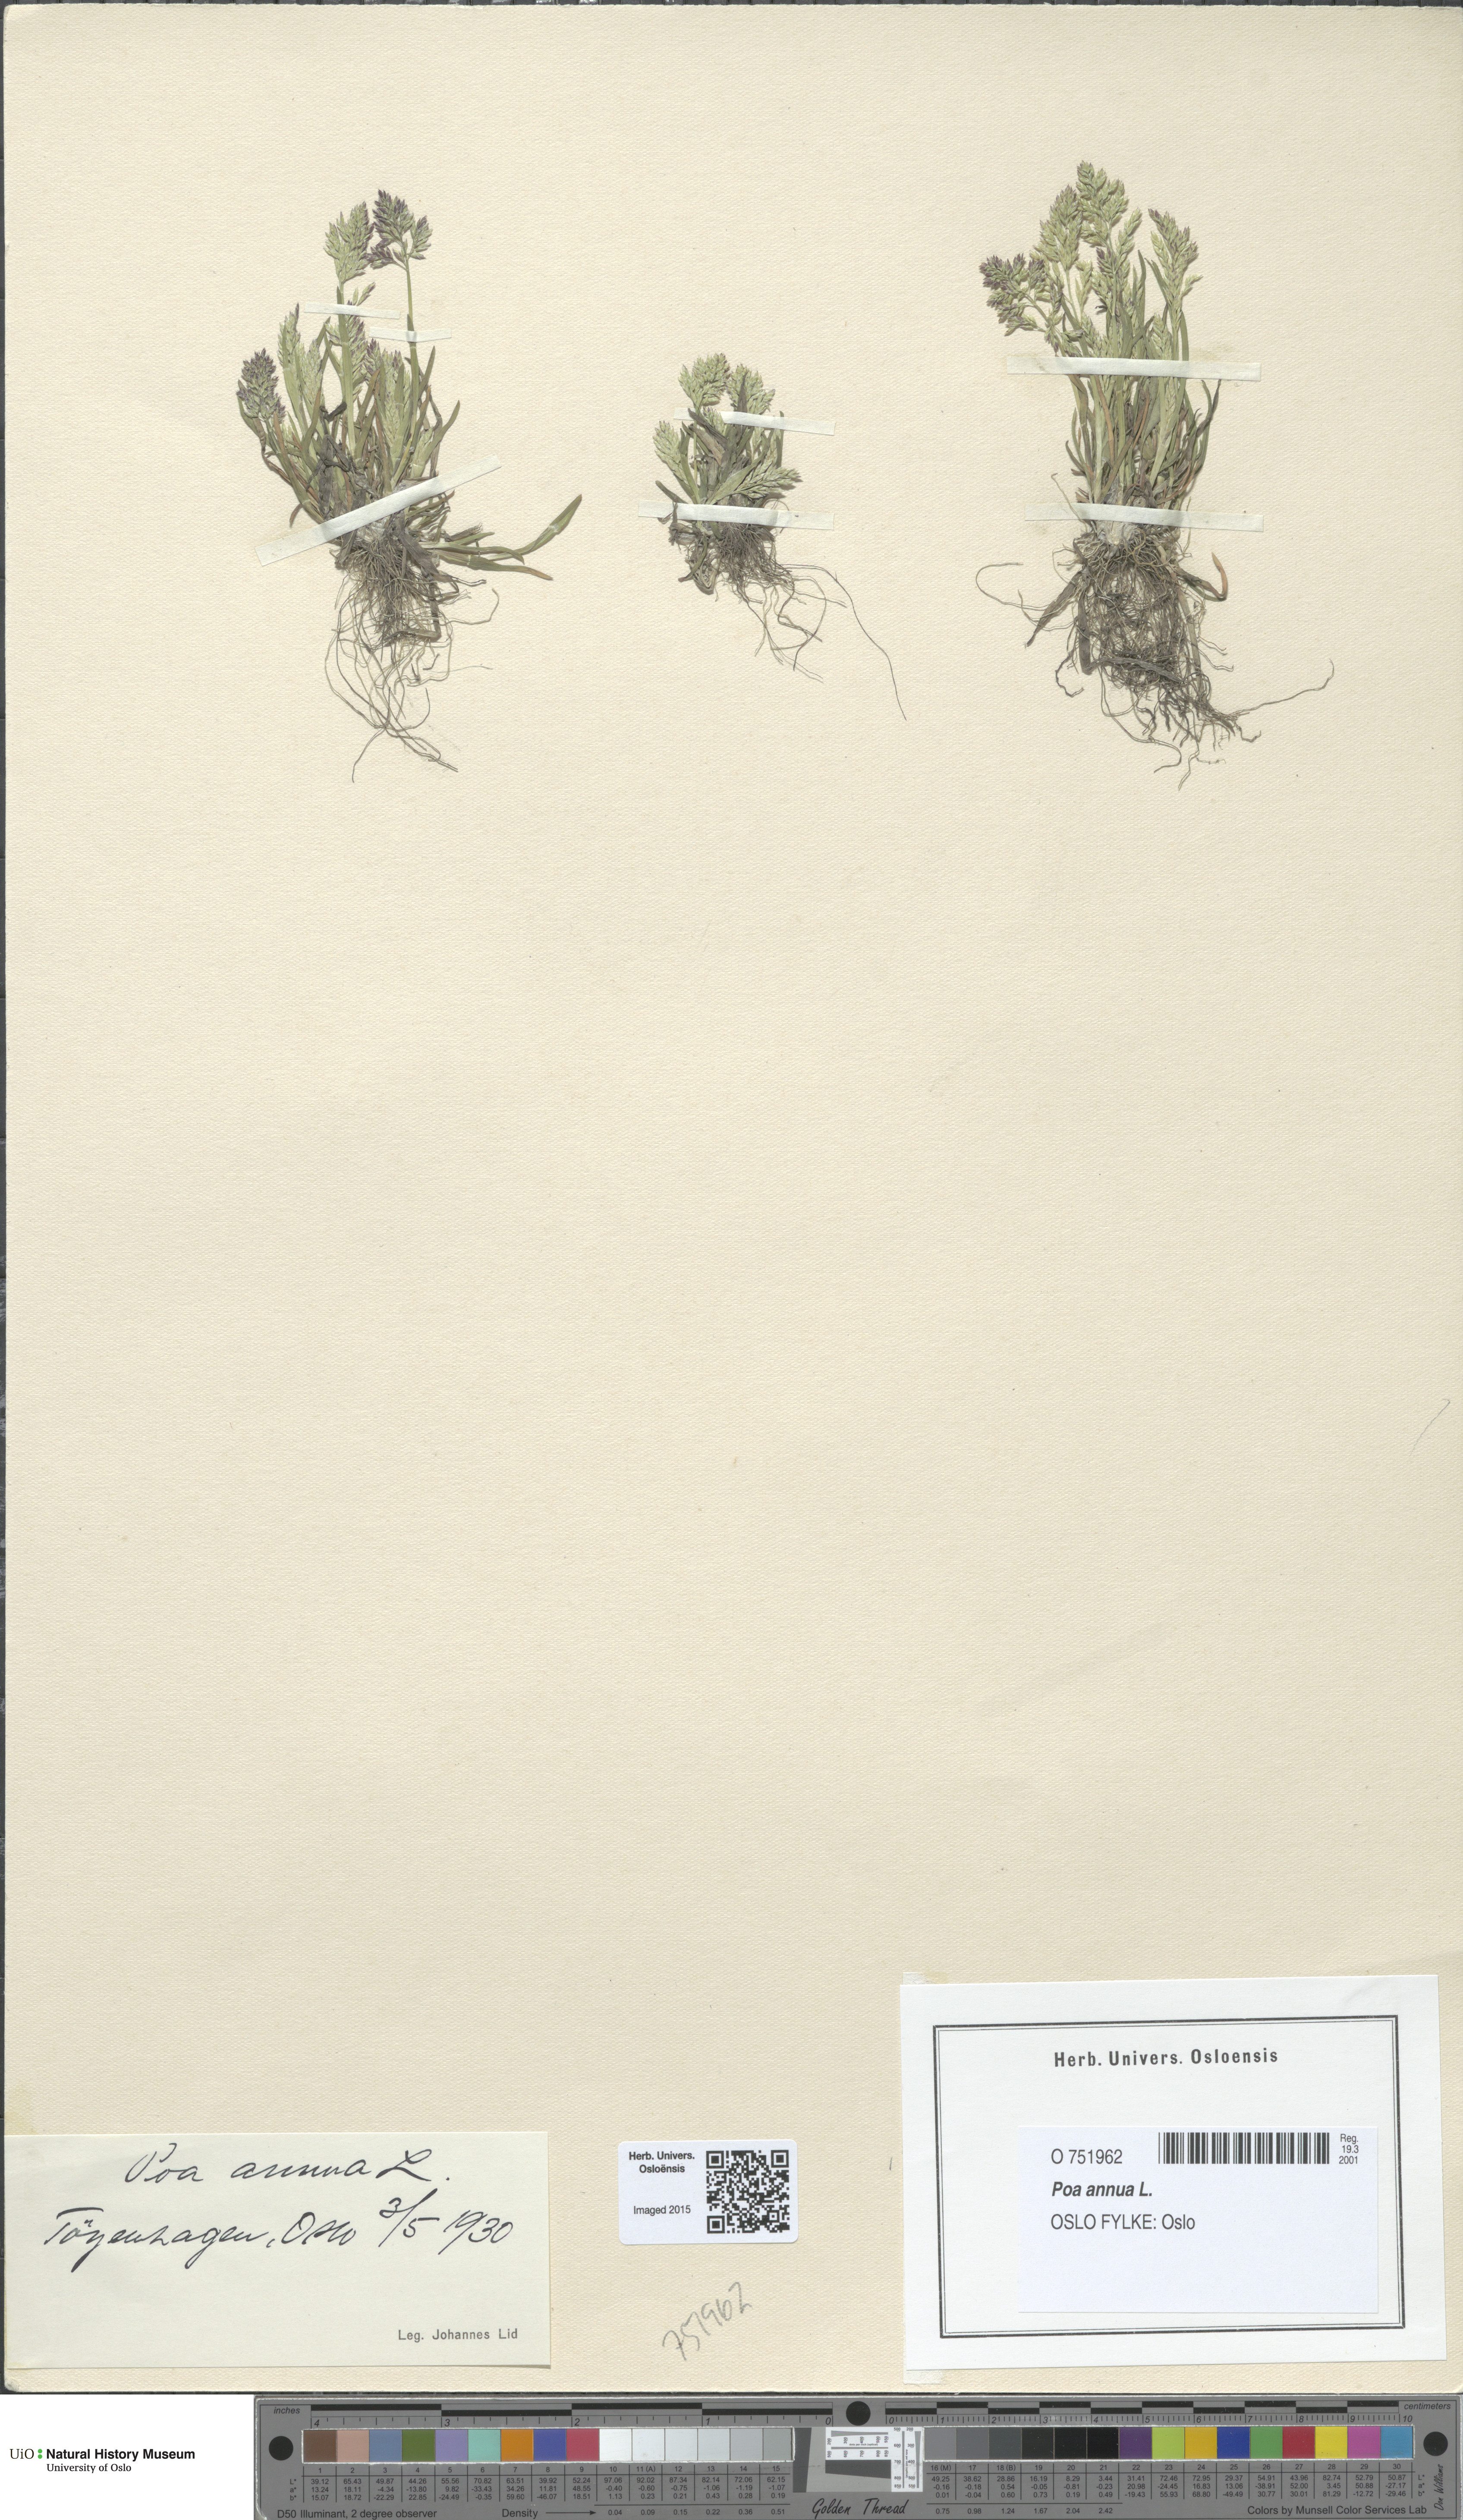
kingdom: Plantae
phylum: Tracheophyta
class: Liliopsida
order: Poales
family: Poaceae
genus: Poa
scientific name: Poa annua
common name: Annual bluegrass
